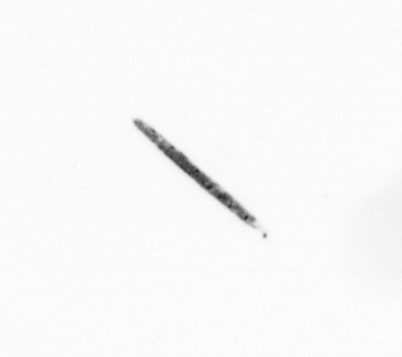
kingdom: Chromista
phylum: Ochrophyta
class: Bacillariophyceae
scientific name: Bacillariophyceae
